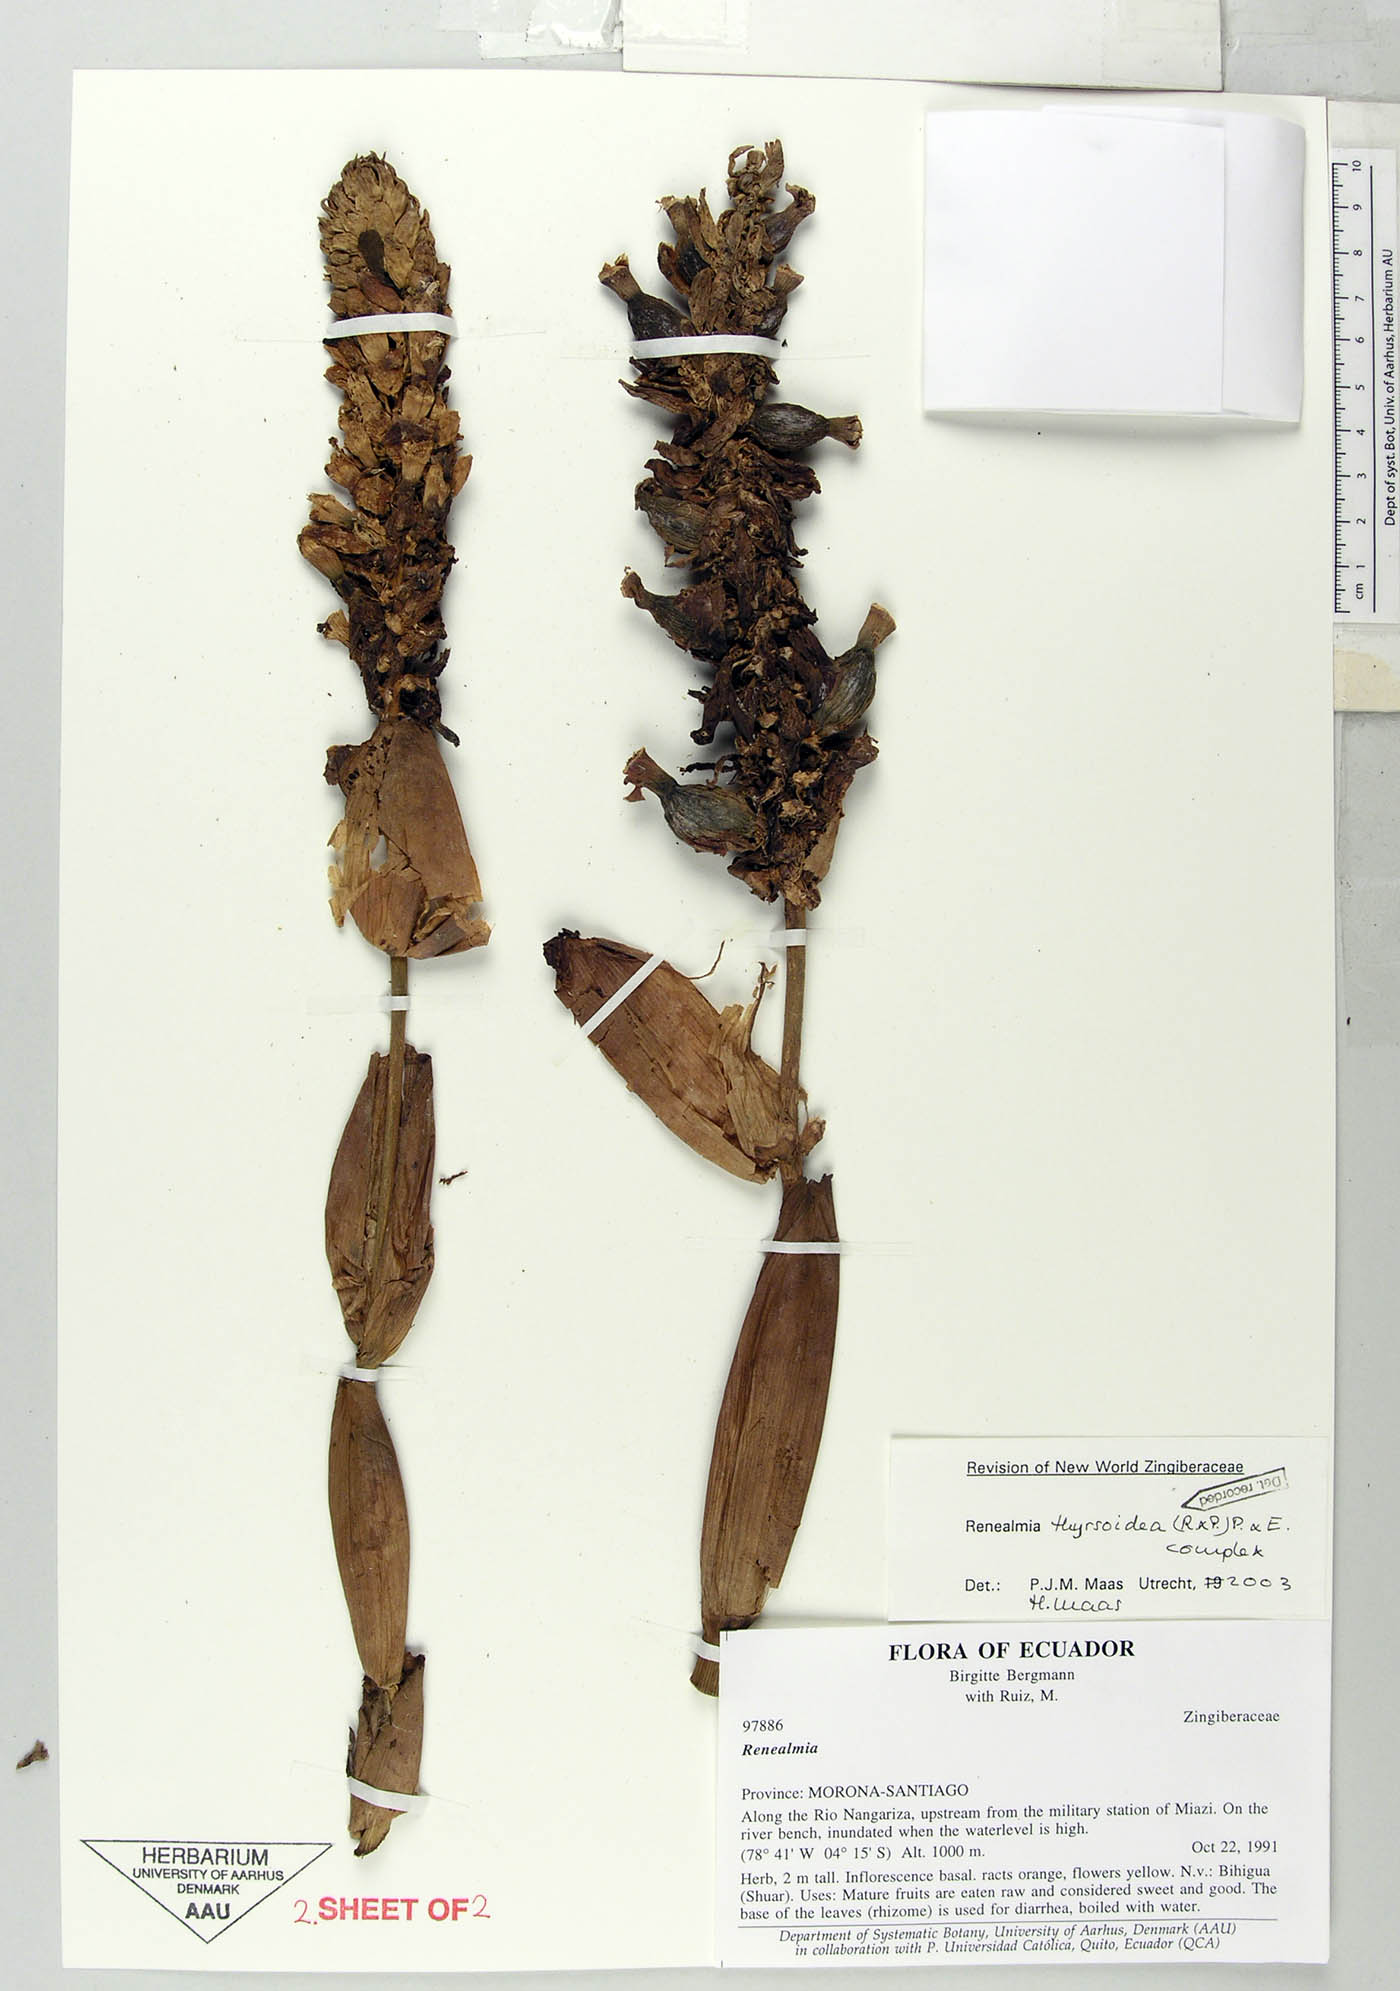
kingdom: Plantae
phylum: Tracheophyta
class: Liliopsida
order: Zingiberales
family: Zingiberaceae
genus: Renealmia
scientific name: Renealmia thyrsoidea
